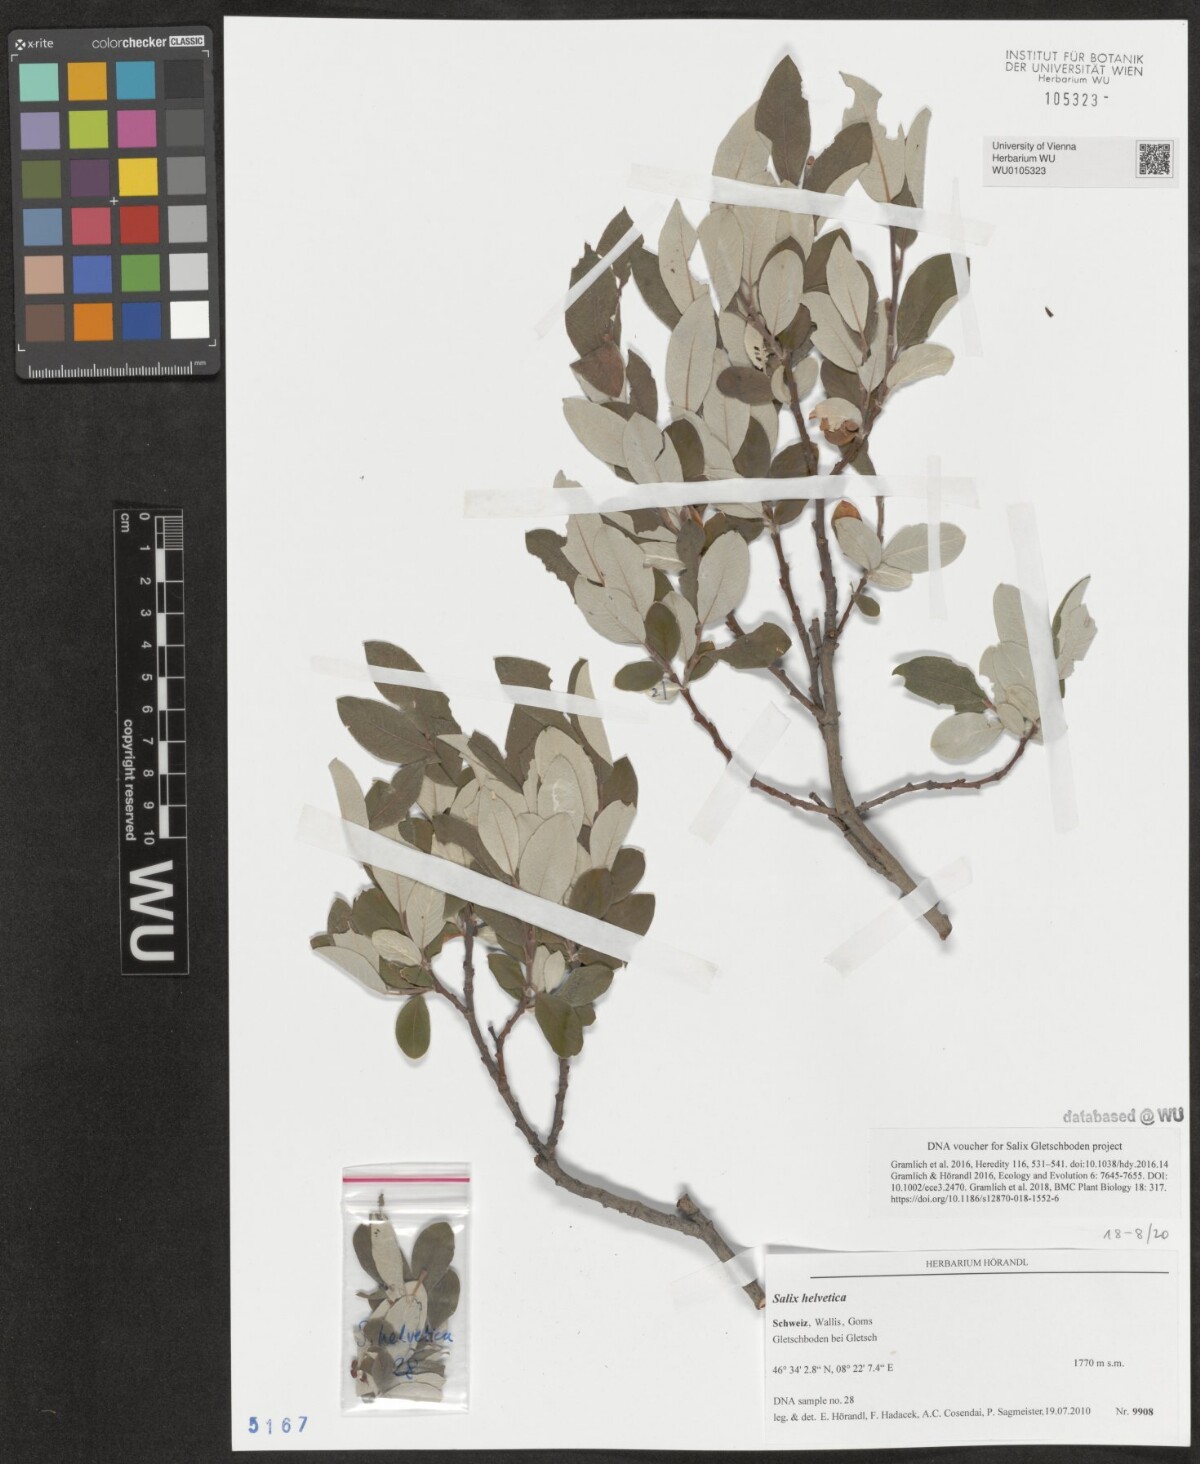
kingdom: Plantae
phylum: Tracheophyta
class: Magnoliopsida
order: Malpighiales
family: Salicaceae
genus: Salix
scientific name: Salix helvetica
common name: Swiss willow
